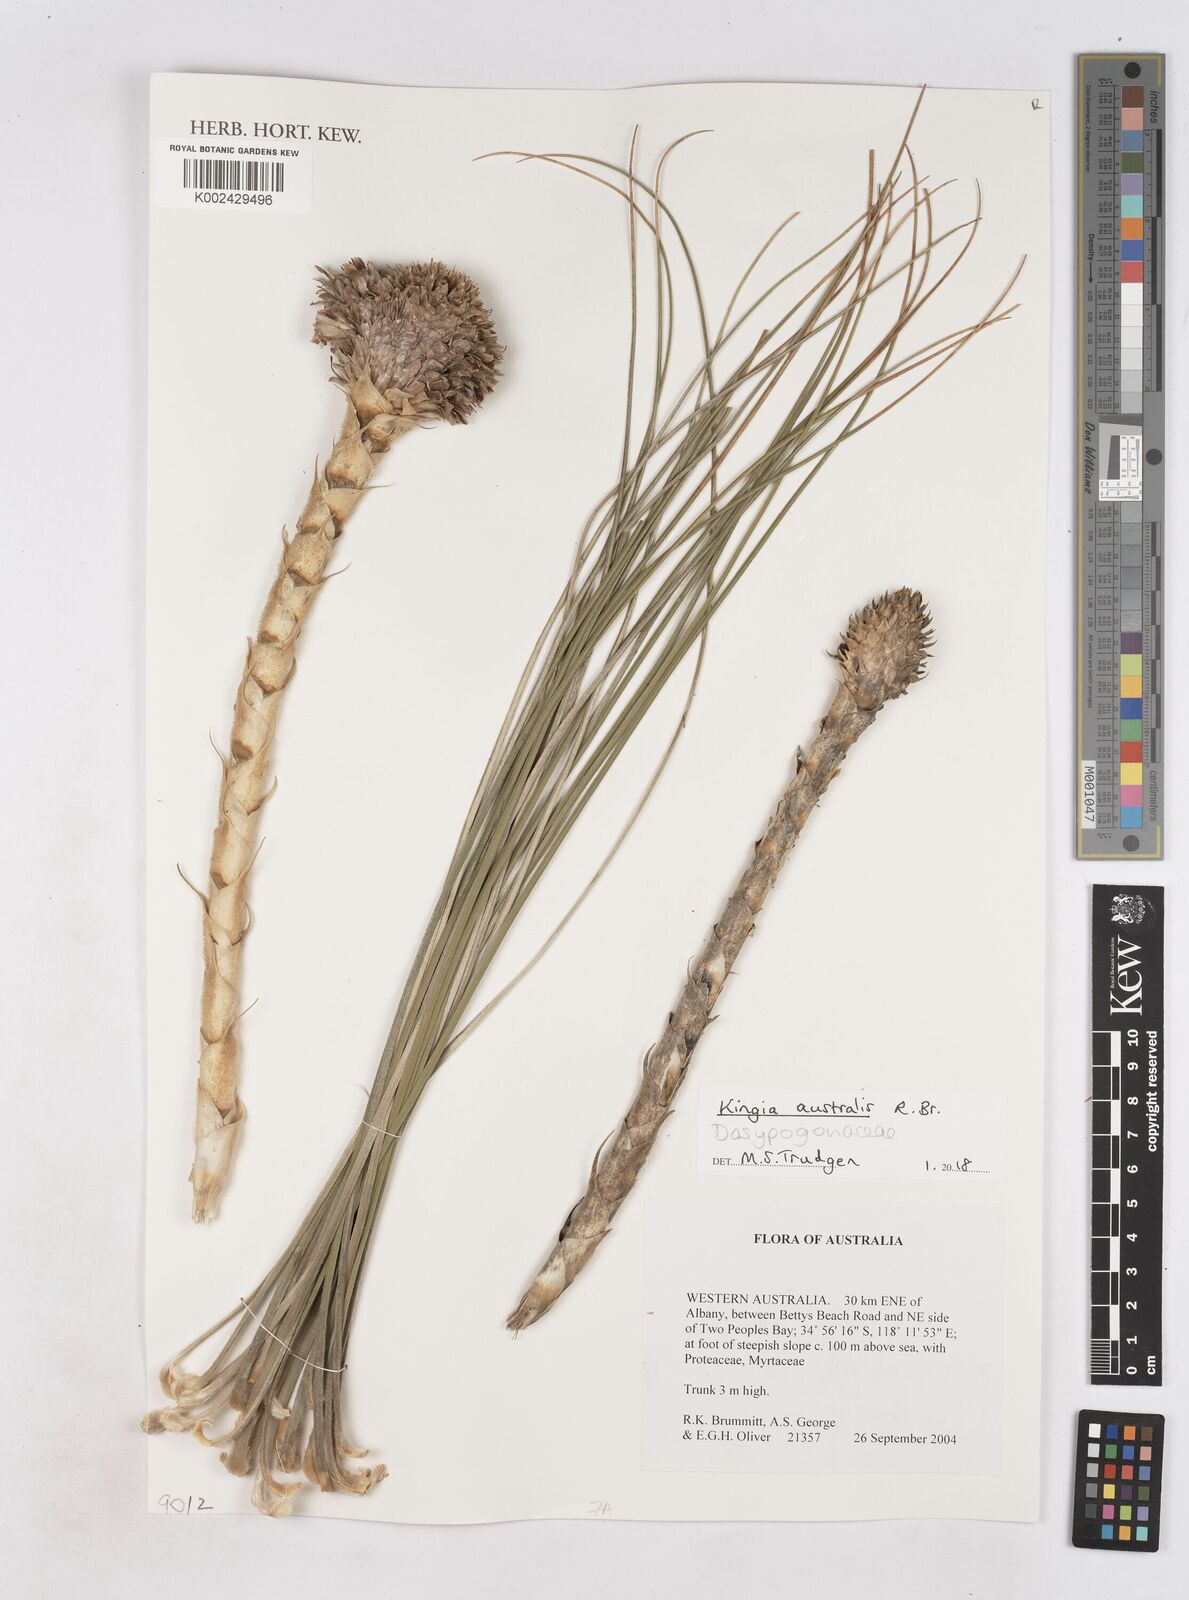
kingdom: Plantae
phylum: Tracheophyta
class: Liliopsida
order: Arecales
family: Dasypogonaceae
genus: Kingia
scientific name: Kingia australis
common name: Black gin
